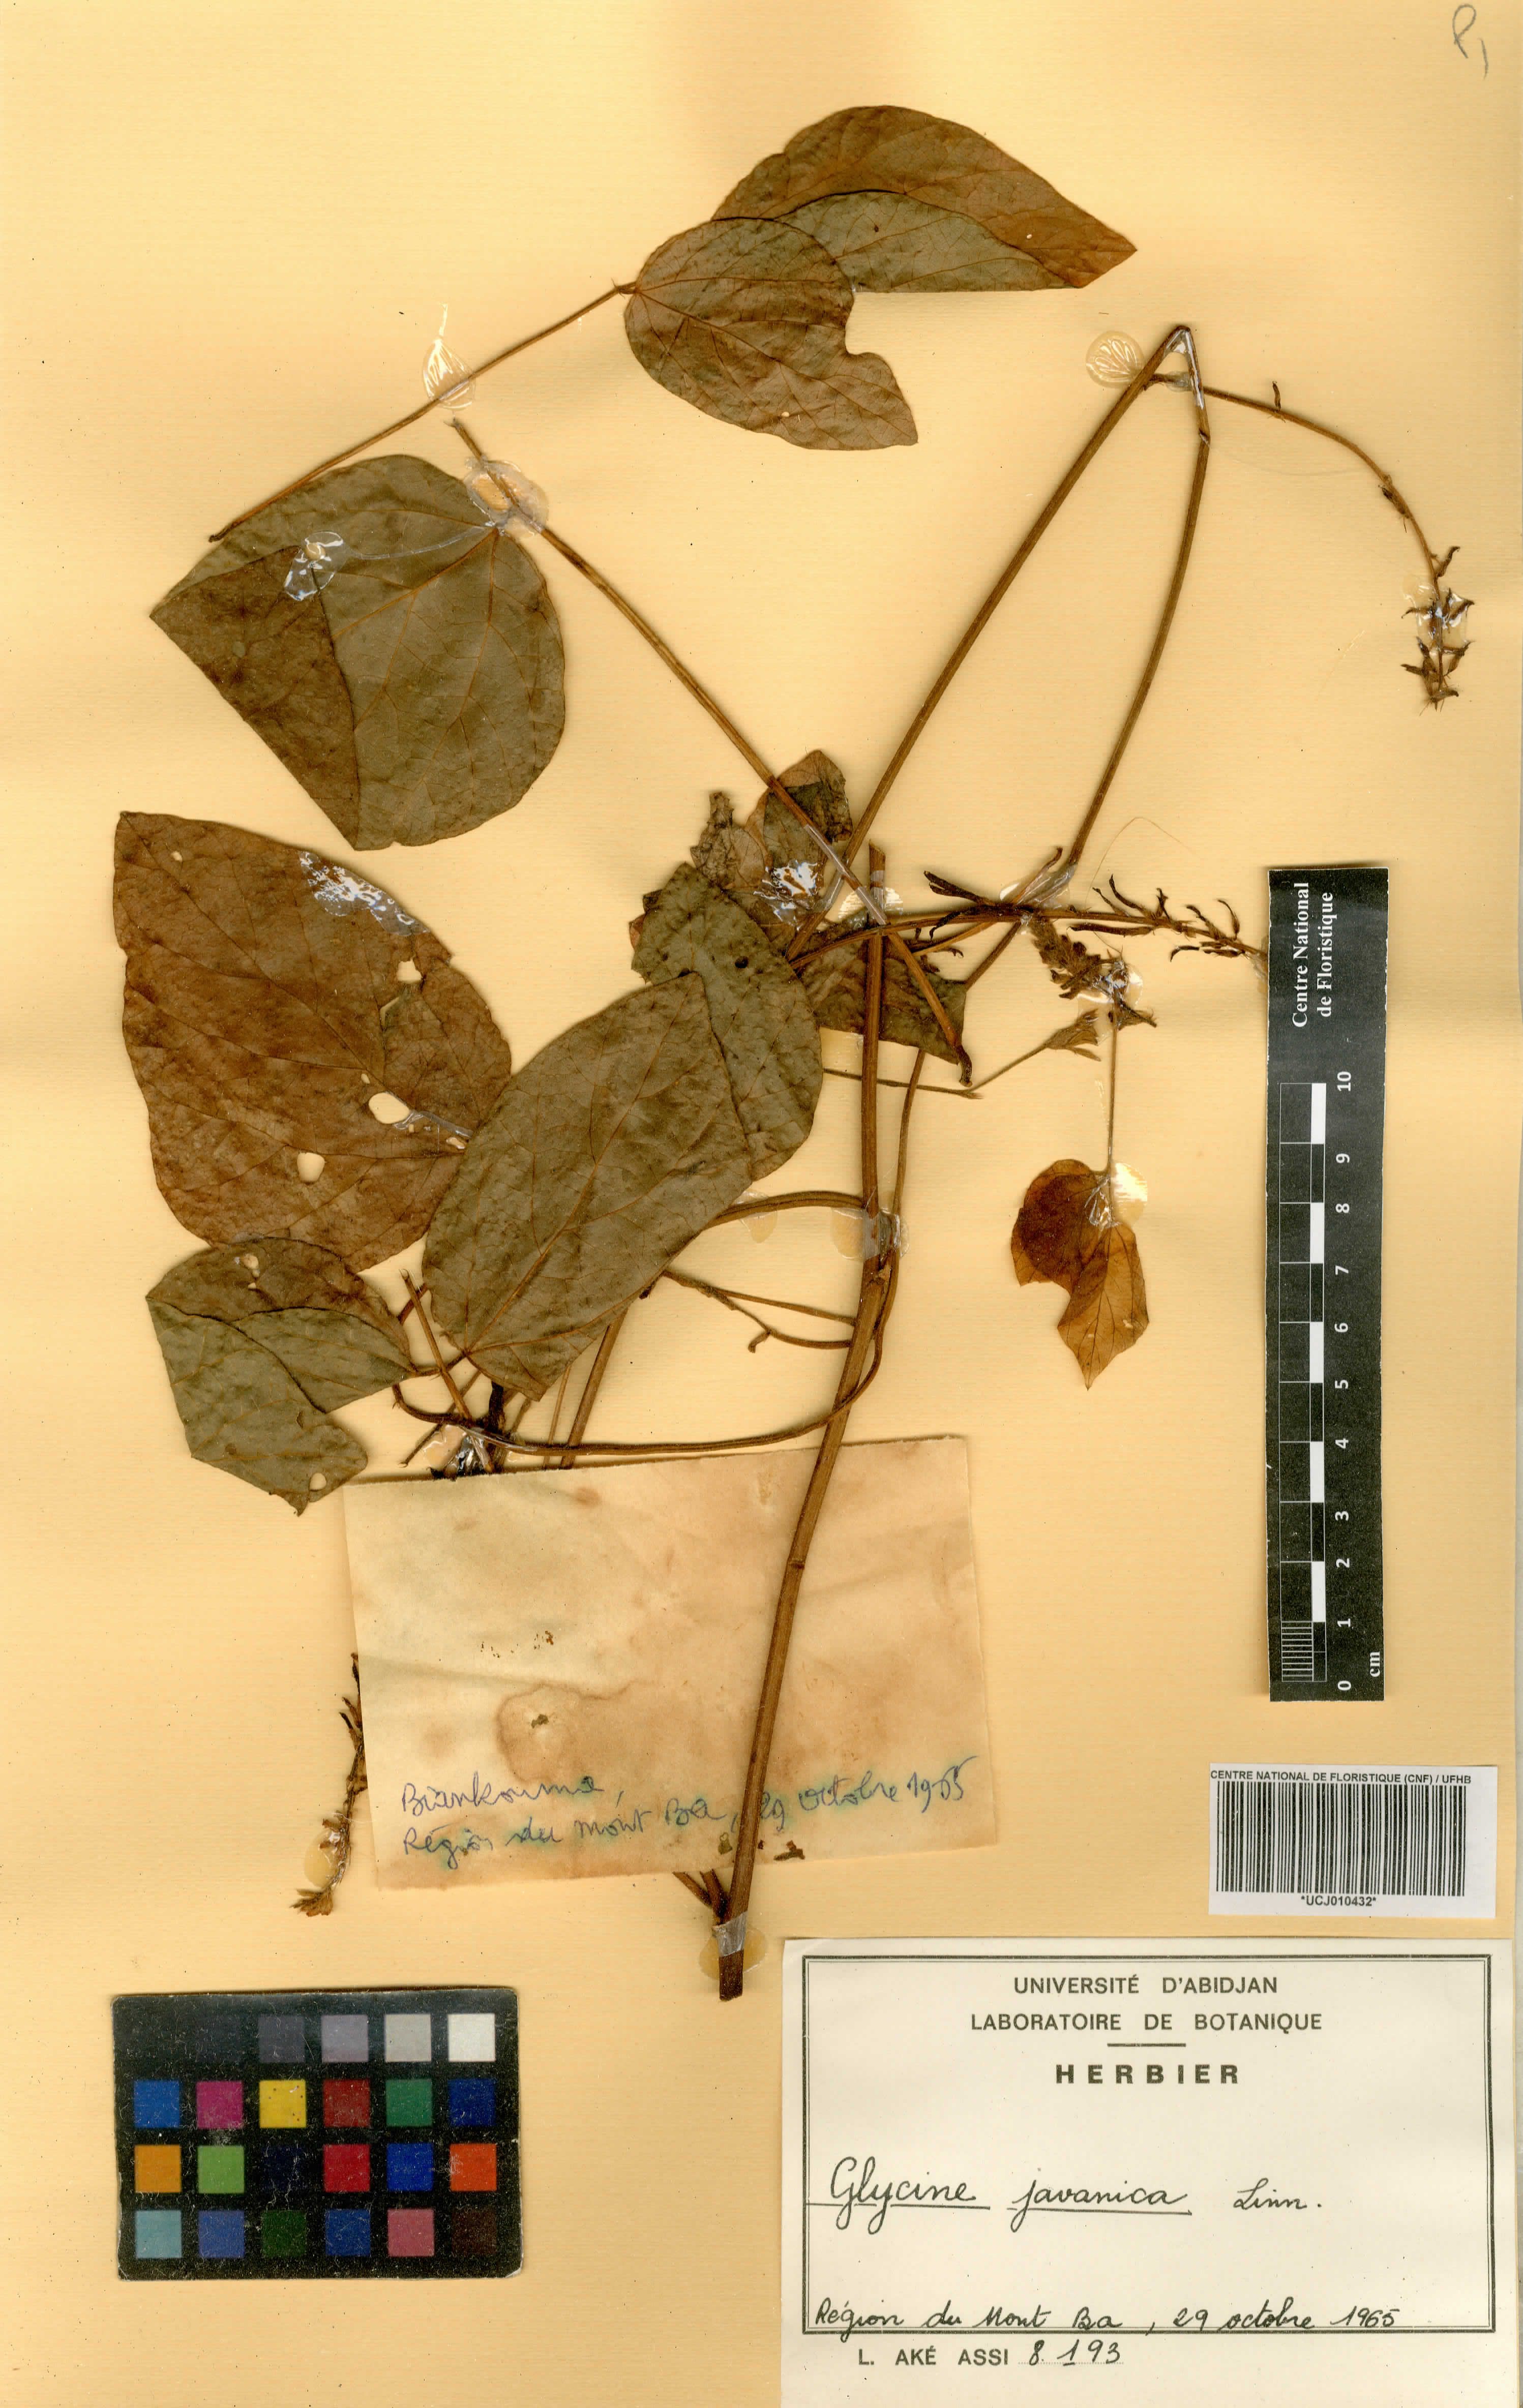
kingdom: Plantae
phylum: Tracheophyta
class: Magnoliopsida
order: Fabales
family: Fabaceae
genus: Pueraria
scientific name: Pueraria montana
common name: Kudzu
